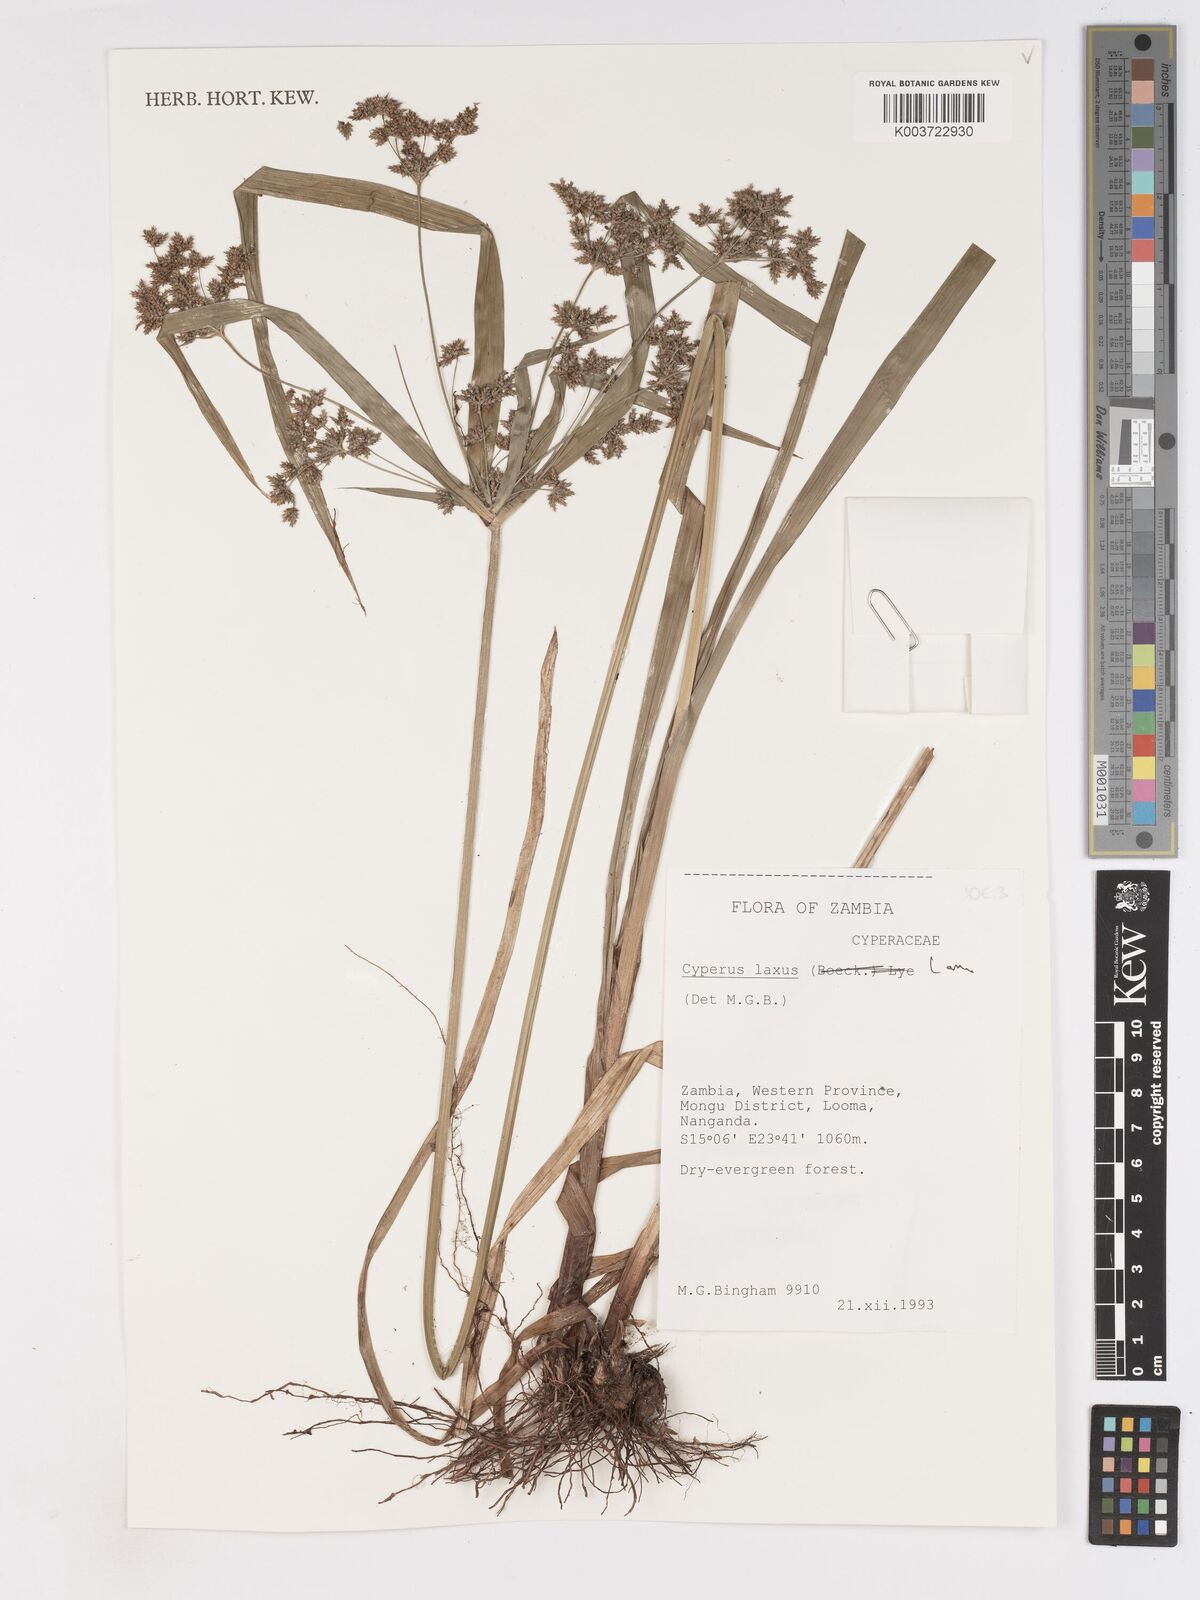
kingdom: Plantae
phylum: Tracheophyta
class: Liliopsida
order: Poales
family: Cyperaceae
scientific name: Cyperaceae
